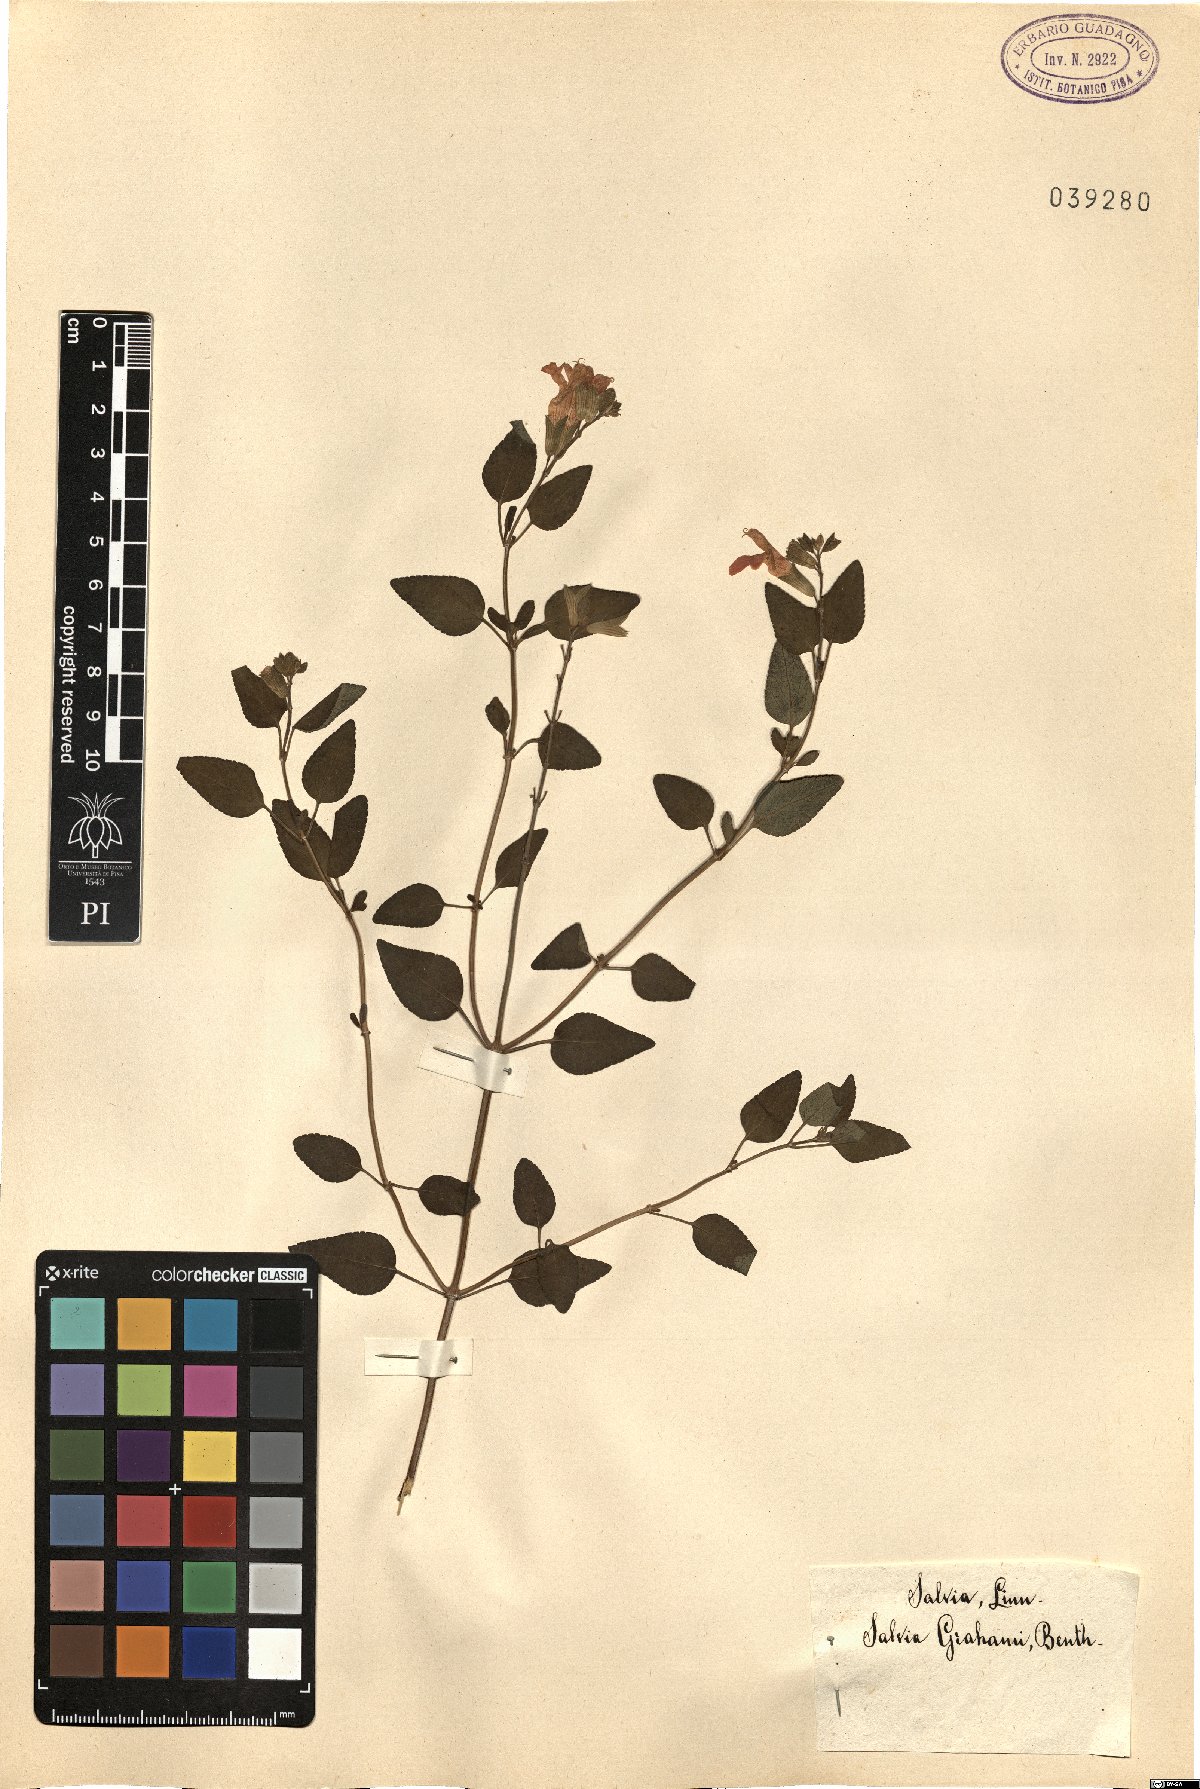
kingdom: Plantae
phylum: Tracheophyta
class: Magnoliopsida
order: Lamiales
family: Lamiaceae
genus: Salvia
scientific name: Salvia microphylla
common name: Baby sage
